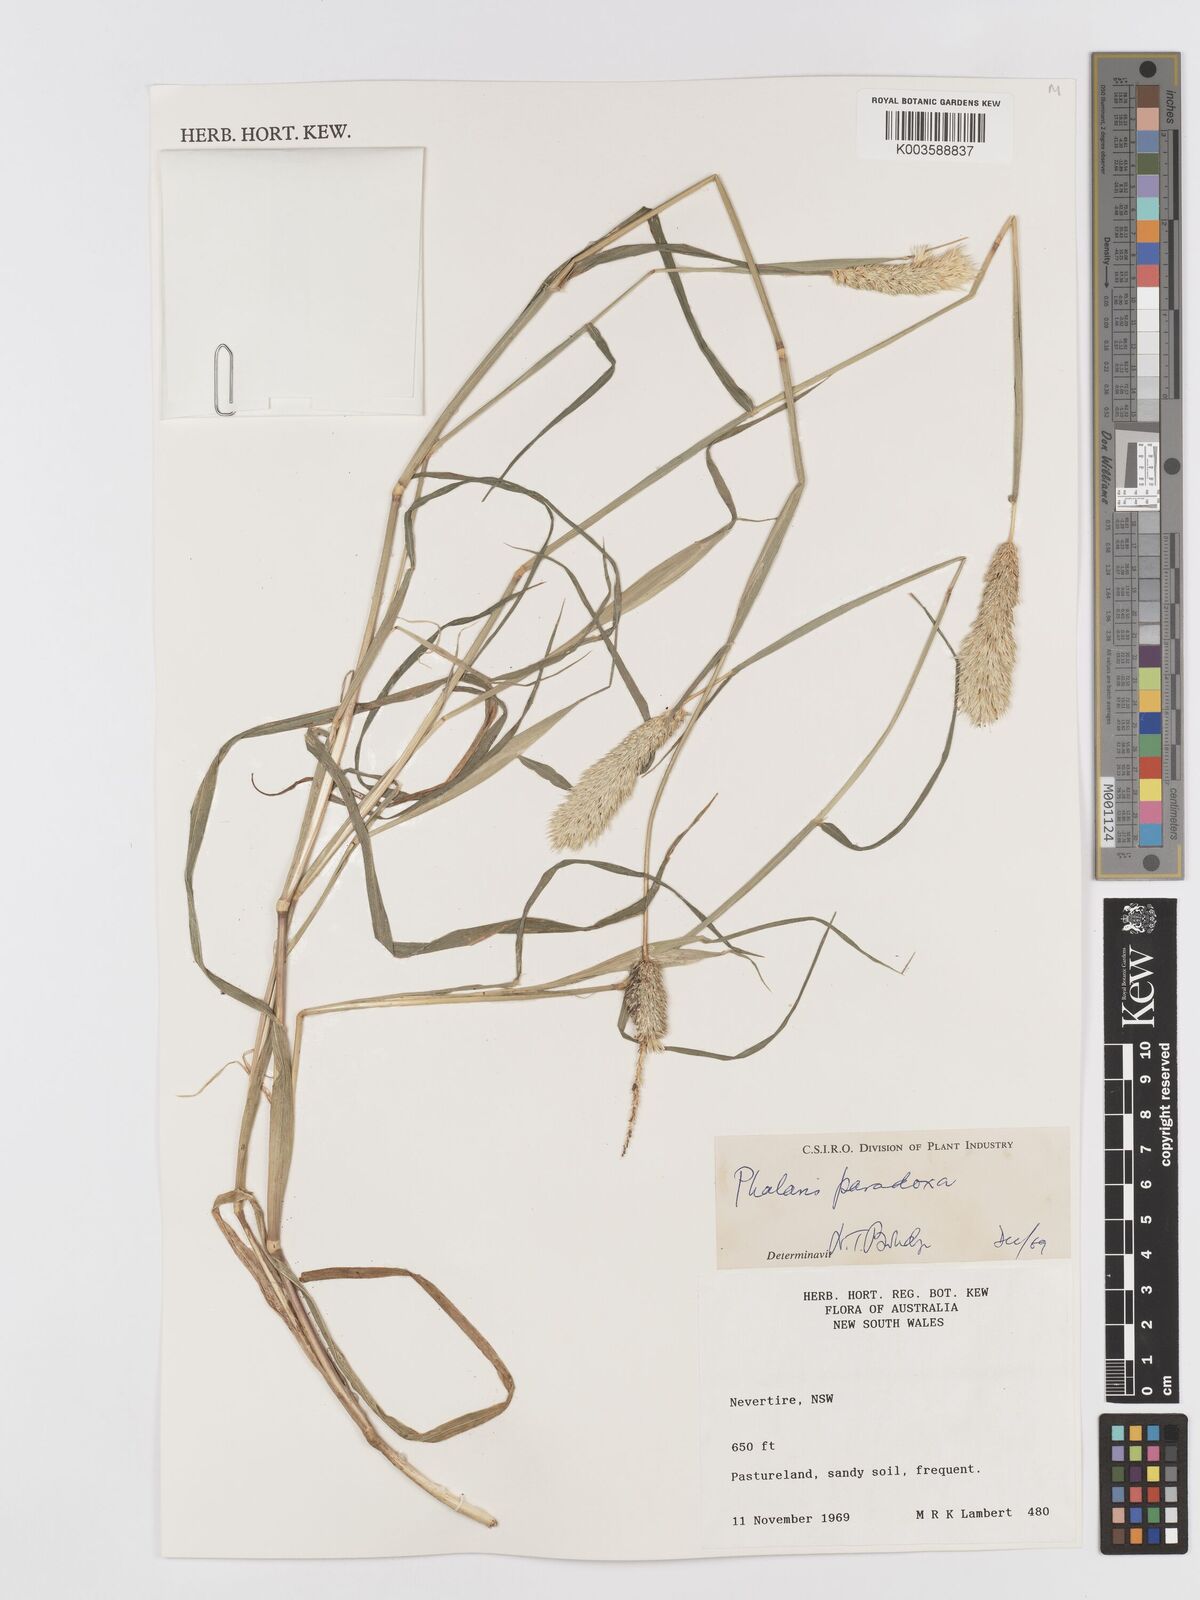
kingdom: Plantae
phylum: Tracheophyta
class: Liliopsida
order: Poales
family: Poaceae
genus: Phalaris
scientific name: Phalaris paradoxa
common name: Awned canary-grass
